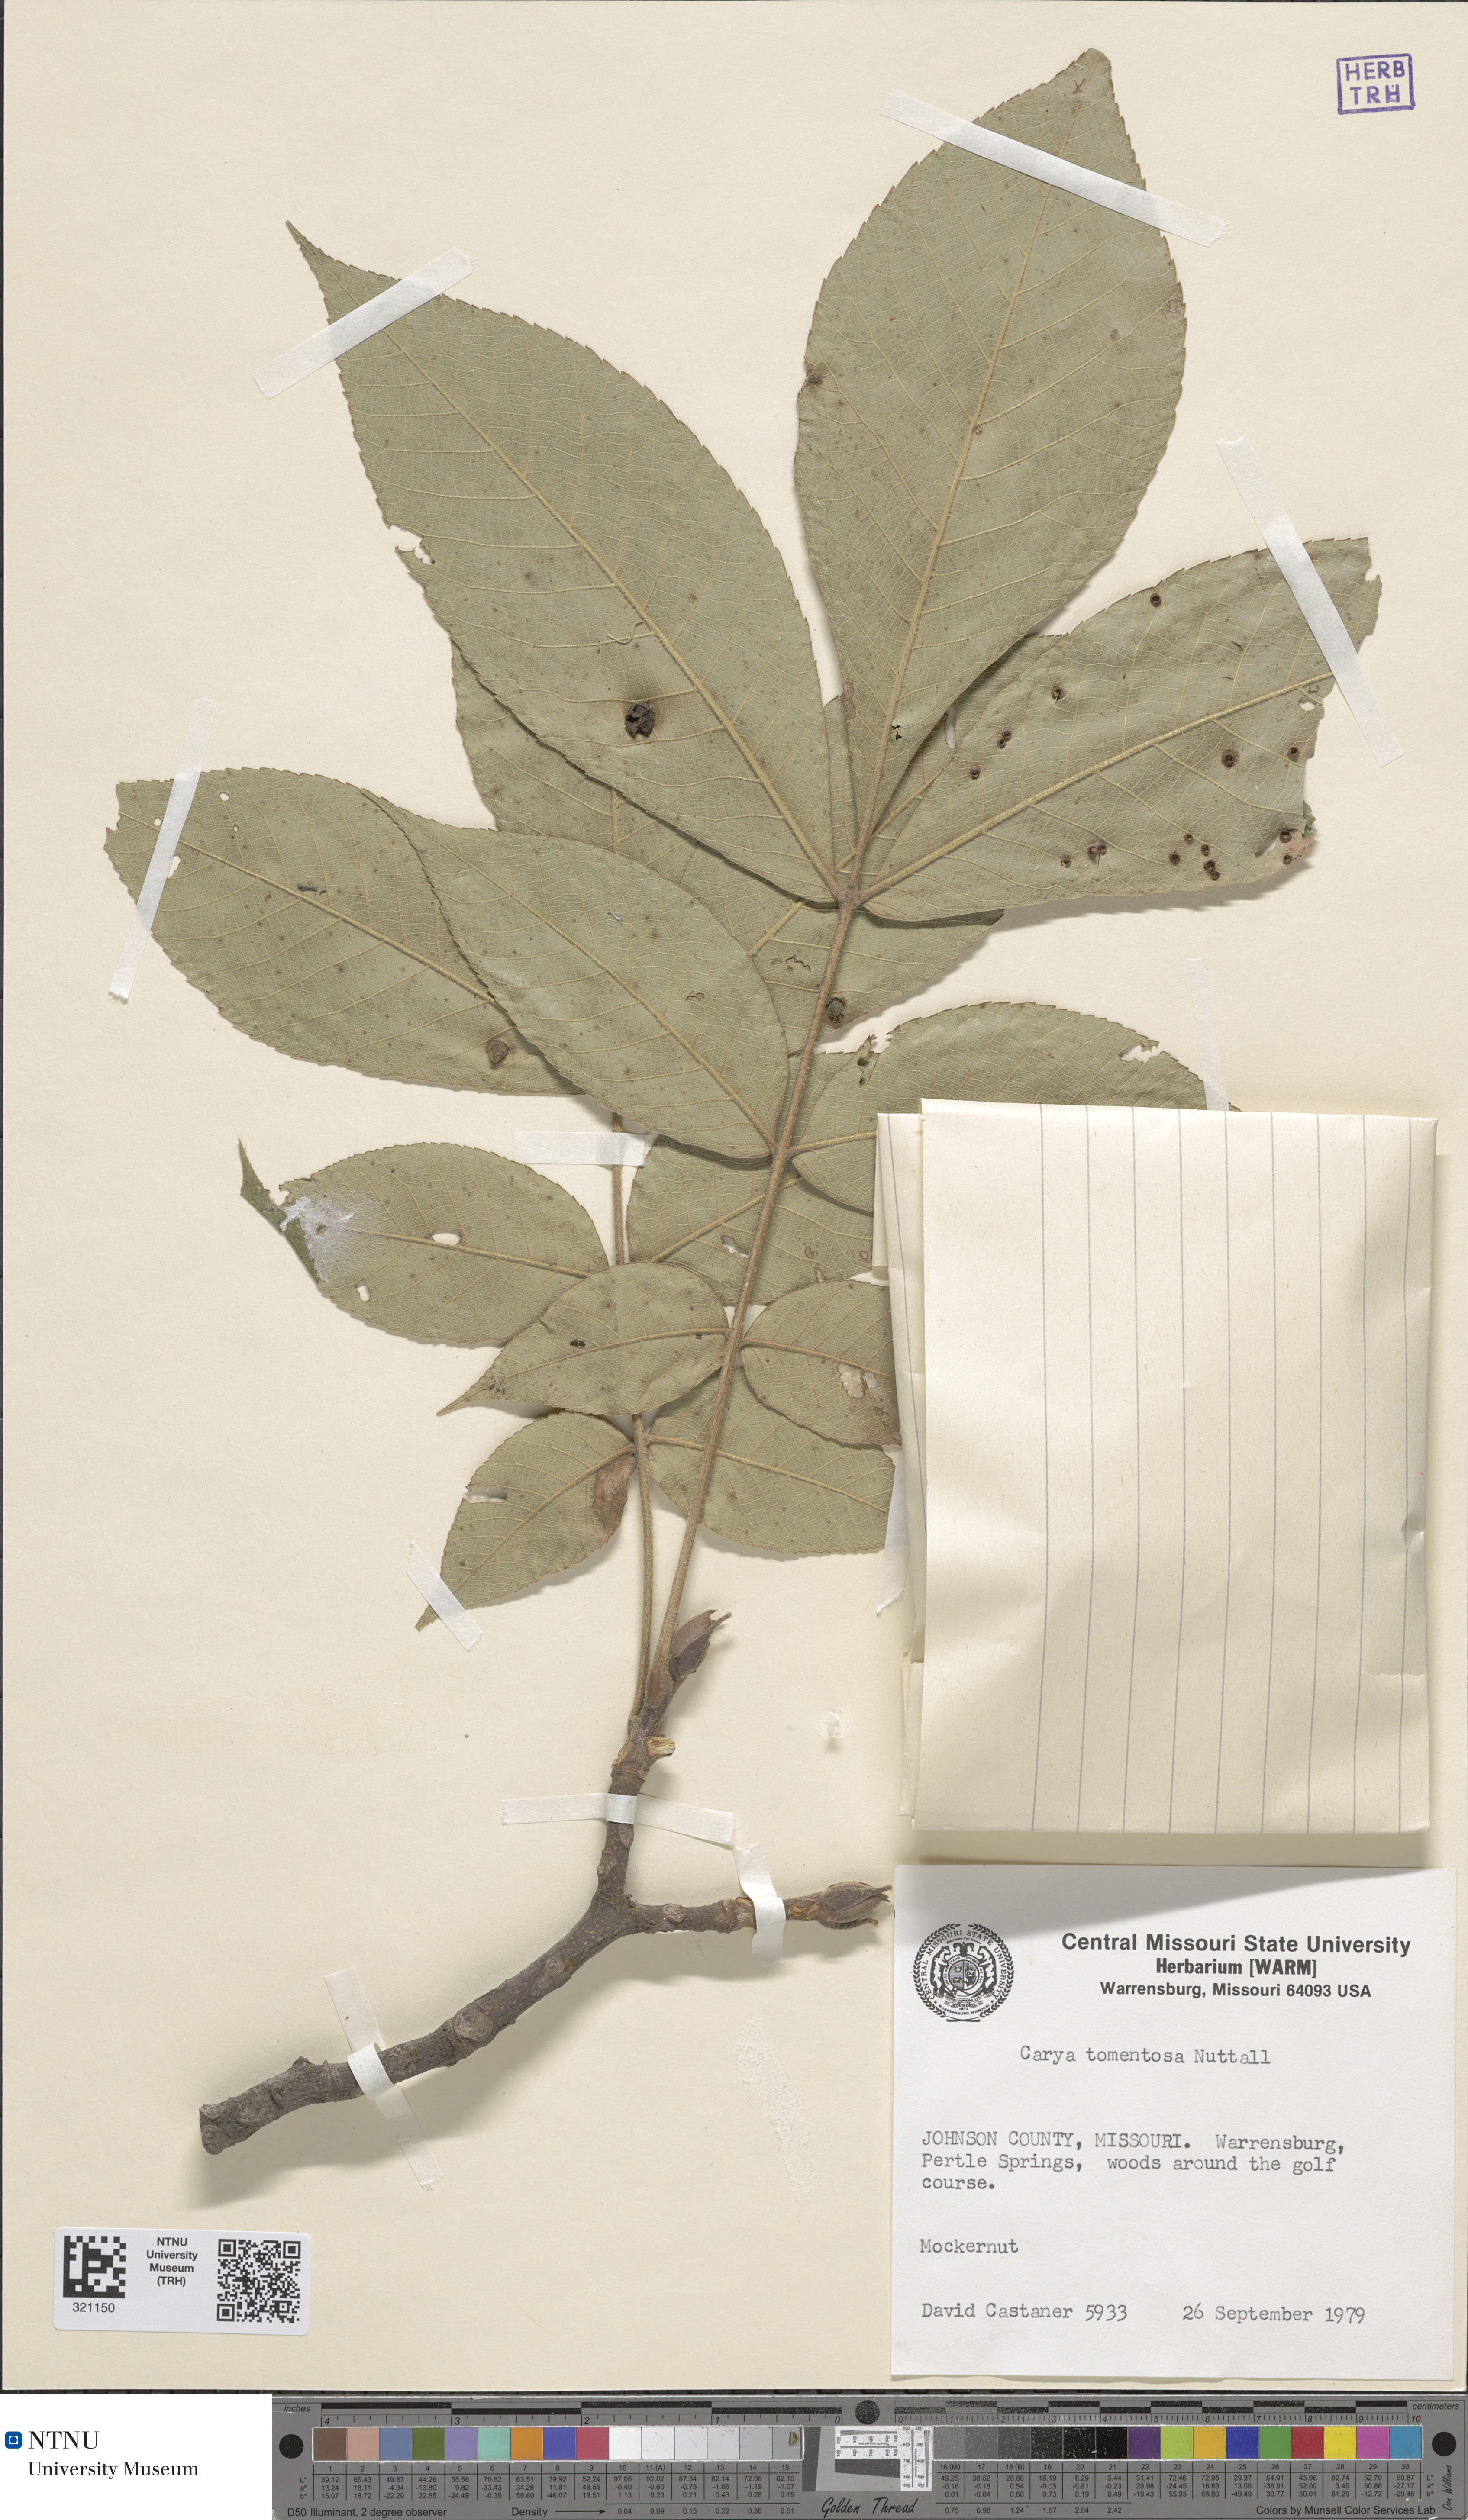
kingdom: Plantae
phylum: Tracheophyta
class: Magnoliopsida
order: Fagales
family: Juglandaceae
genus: Carya
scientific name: Carya alba
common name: Mockernut hickory
